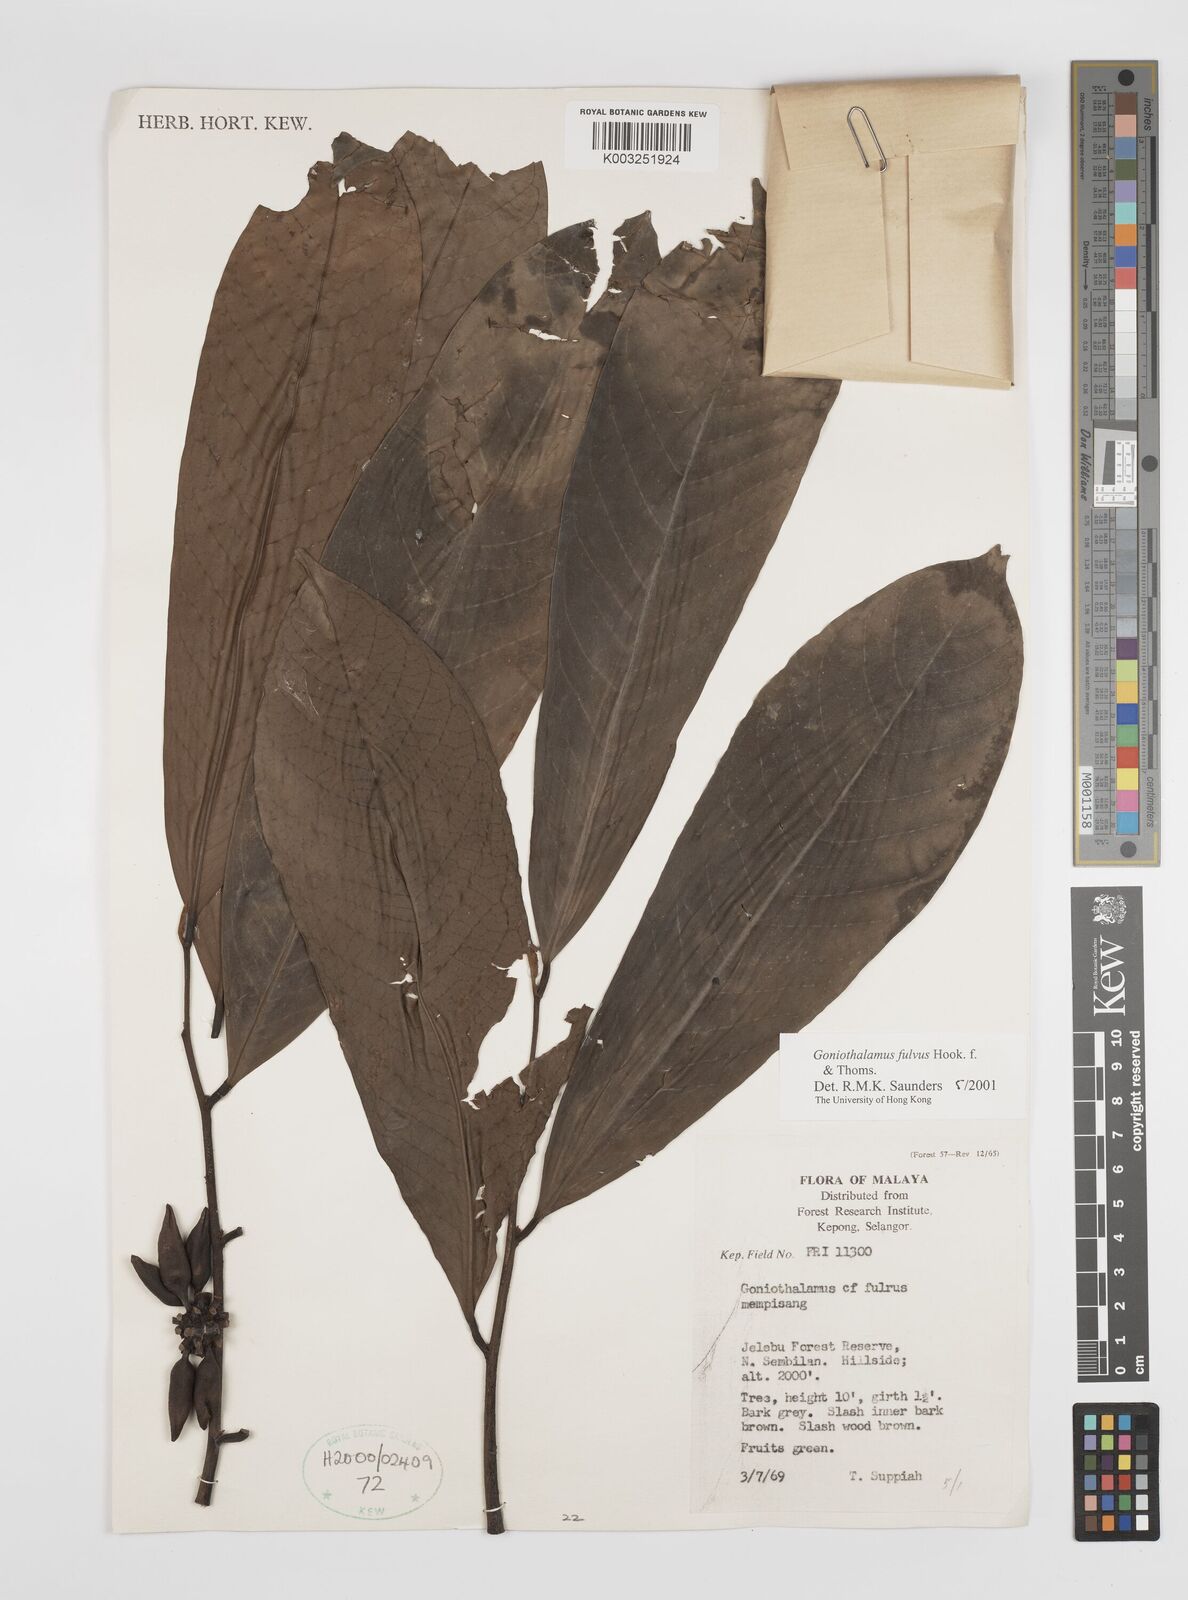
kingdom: Plantae
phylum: Tracheophyta
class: Magnoliopsida
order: Magnoliales
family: Annonaceae
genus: Goniothalamus
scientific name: Goniothalamus fulvus
